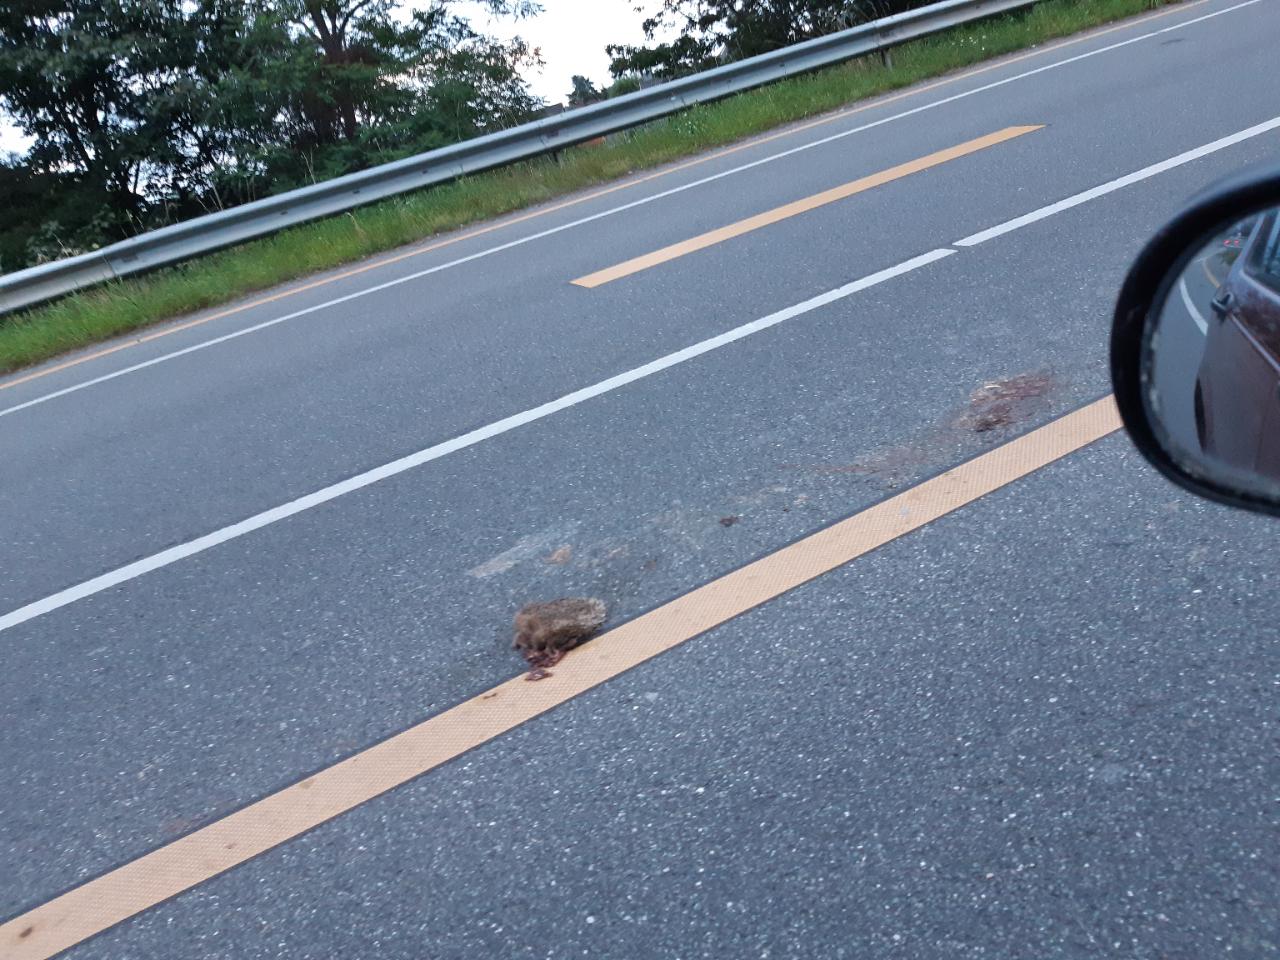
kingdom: Animalia
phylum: Chordata
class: Mammalia
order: Erinaceomorpha
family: Erinaceidae
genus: Erinaceus
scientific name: Erinaceus
